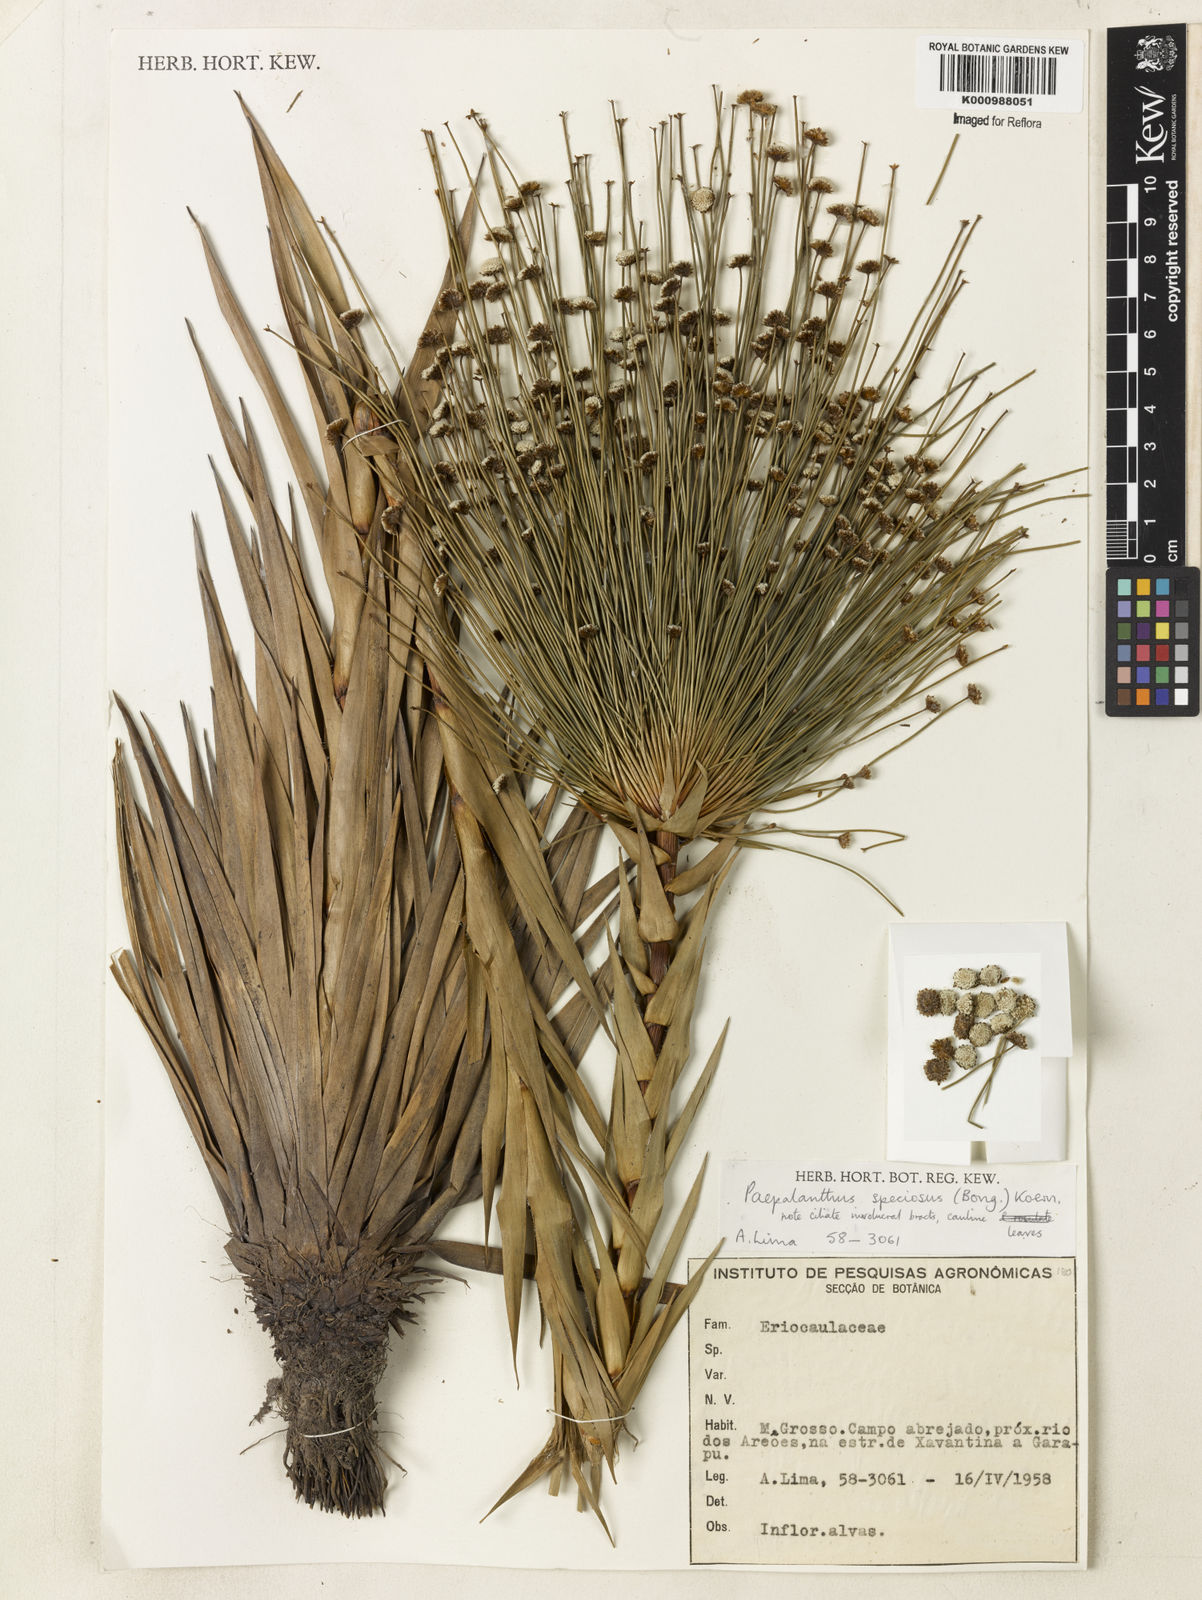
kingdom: Plantae
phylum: Tracheophyta
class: Liliopsida
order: Poales
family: Eriocaulaceae
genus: Paepalanthus
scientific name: Paepalanthus
